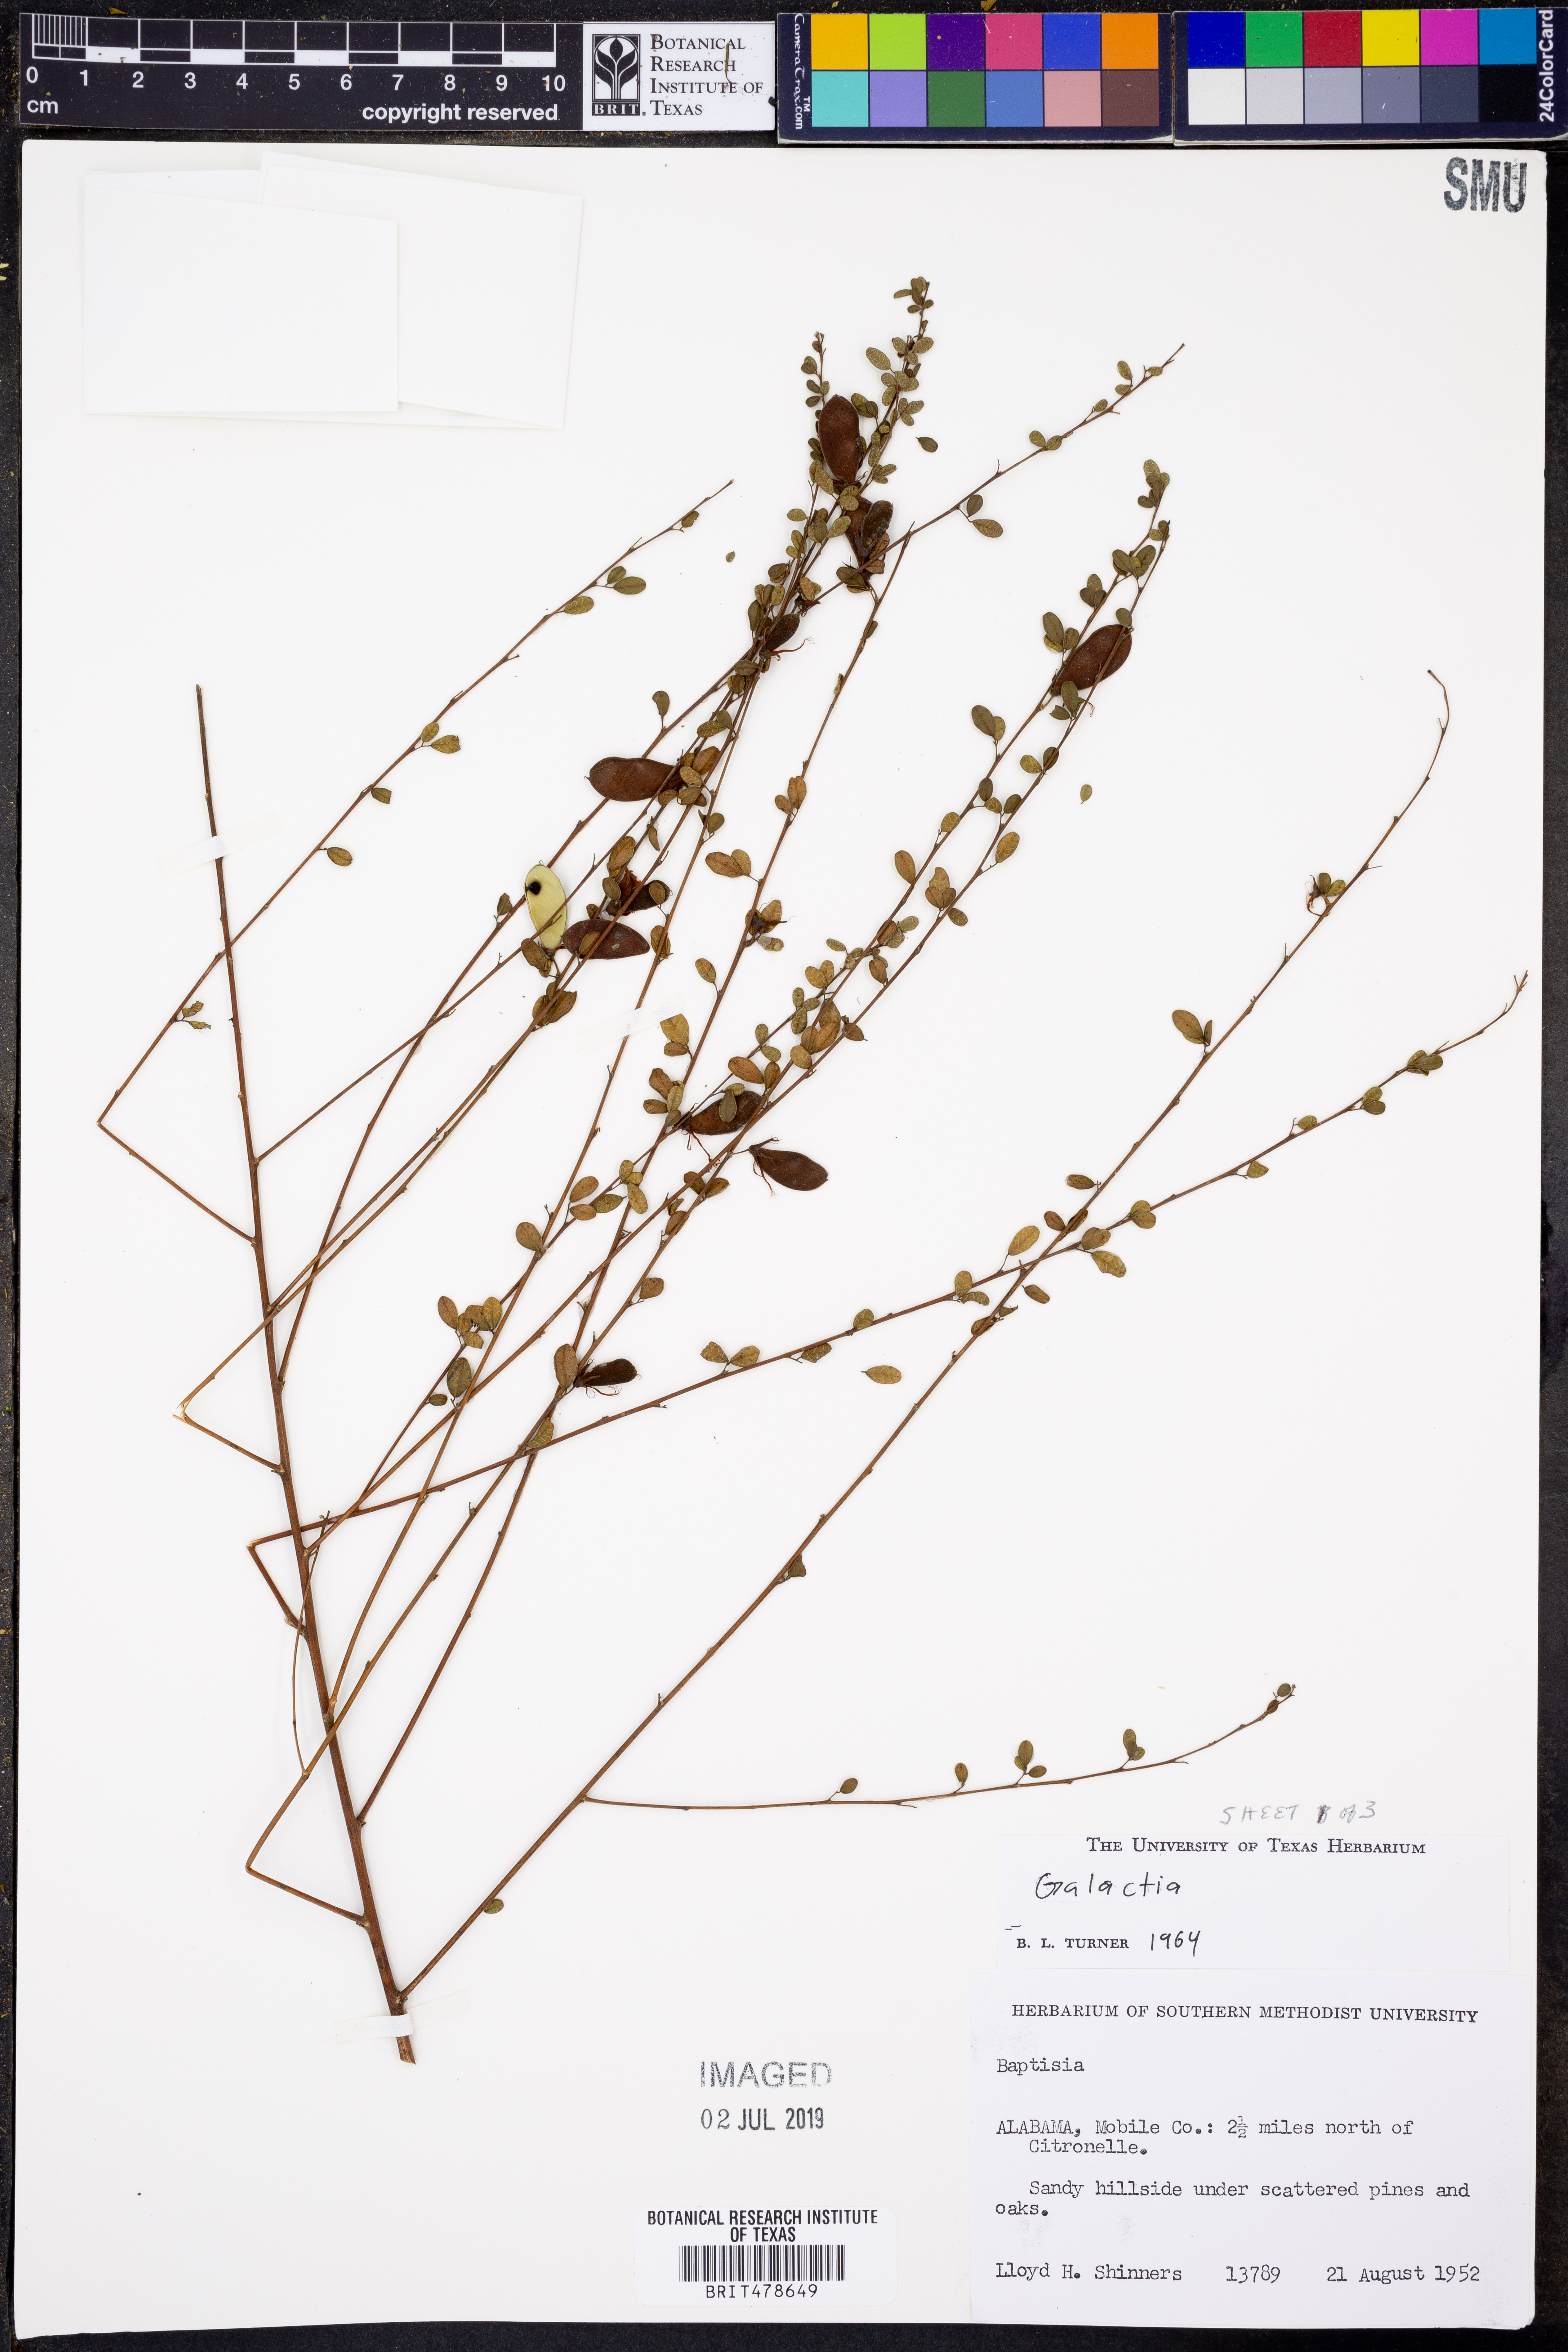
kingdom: Plantae
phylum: Tracheophyta
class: Magnoliopsida
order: Fabales
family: Fabaceae
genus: Galactia
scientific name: Galactia
